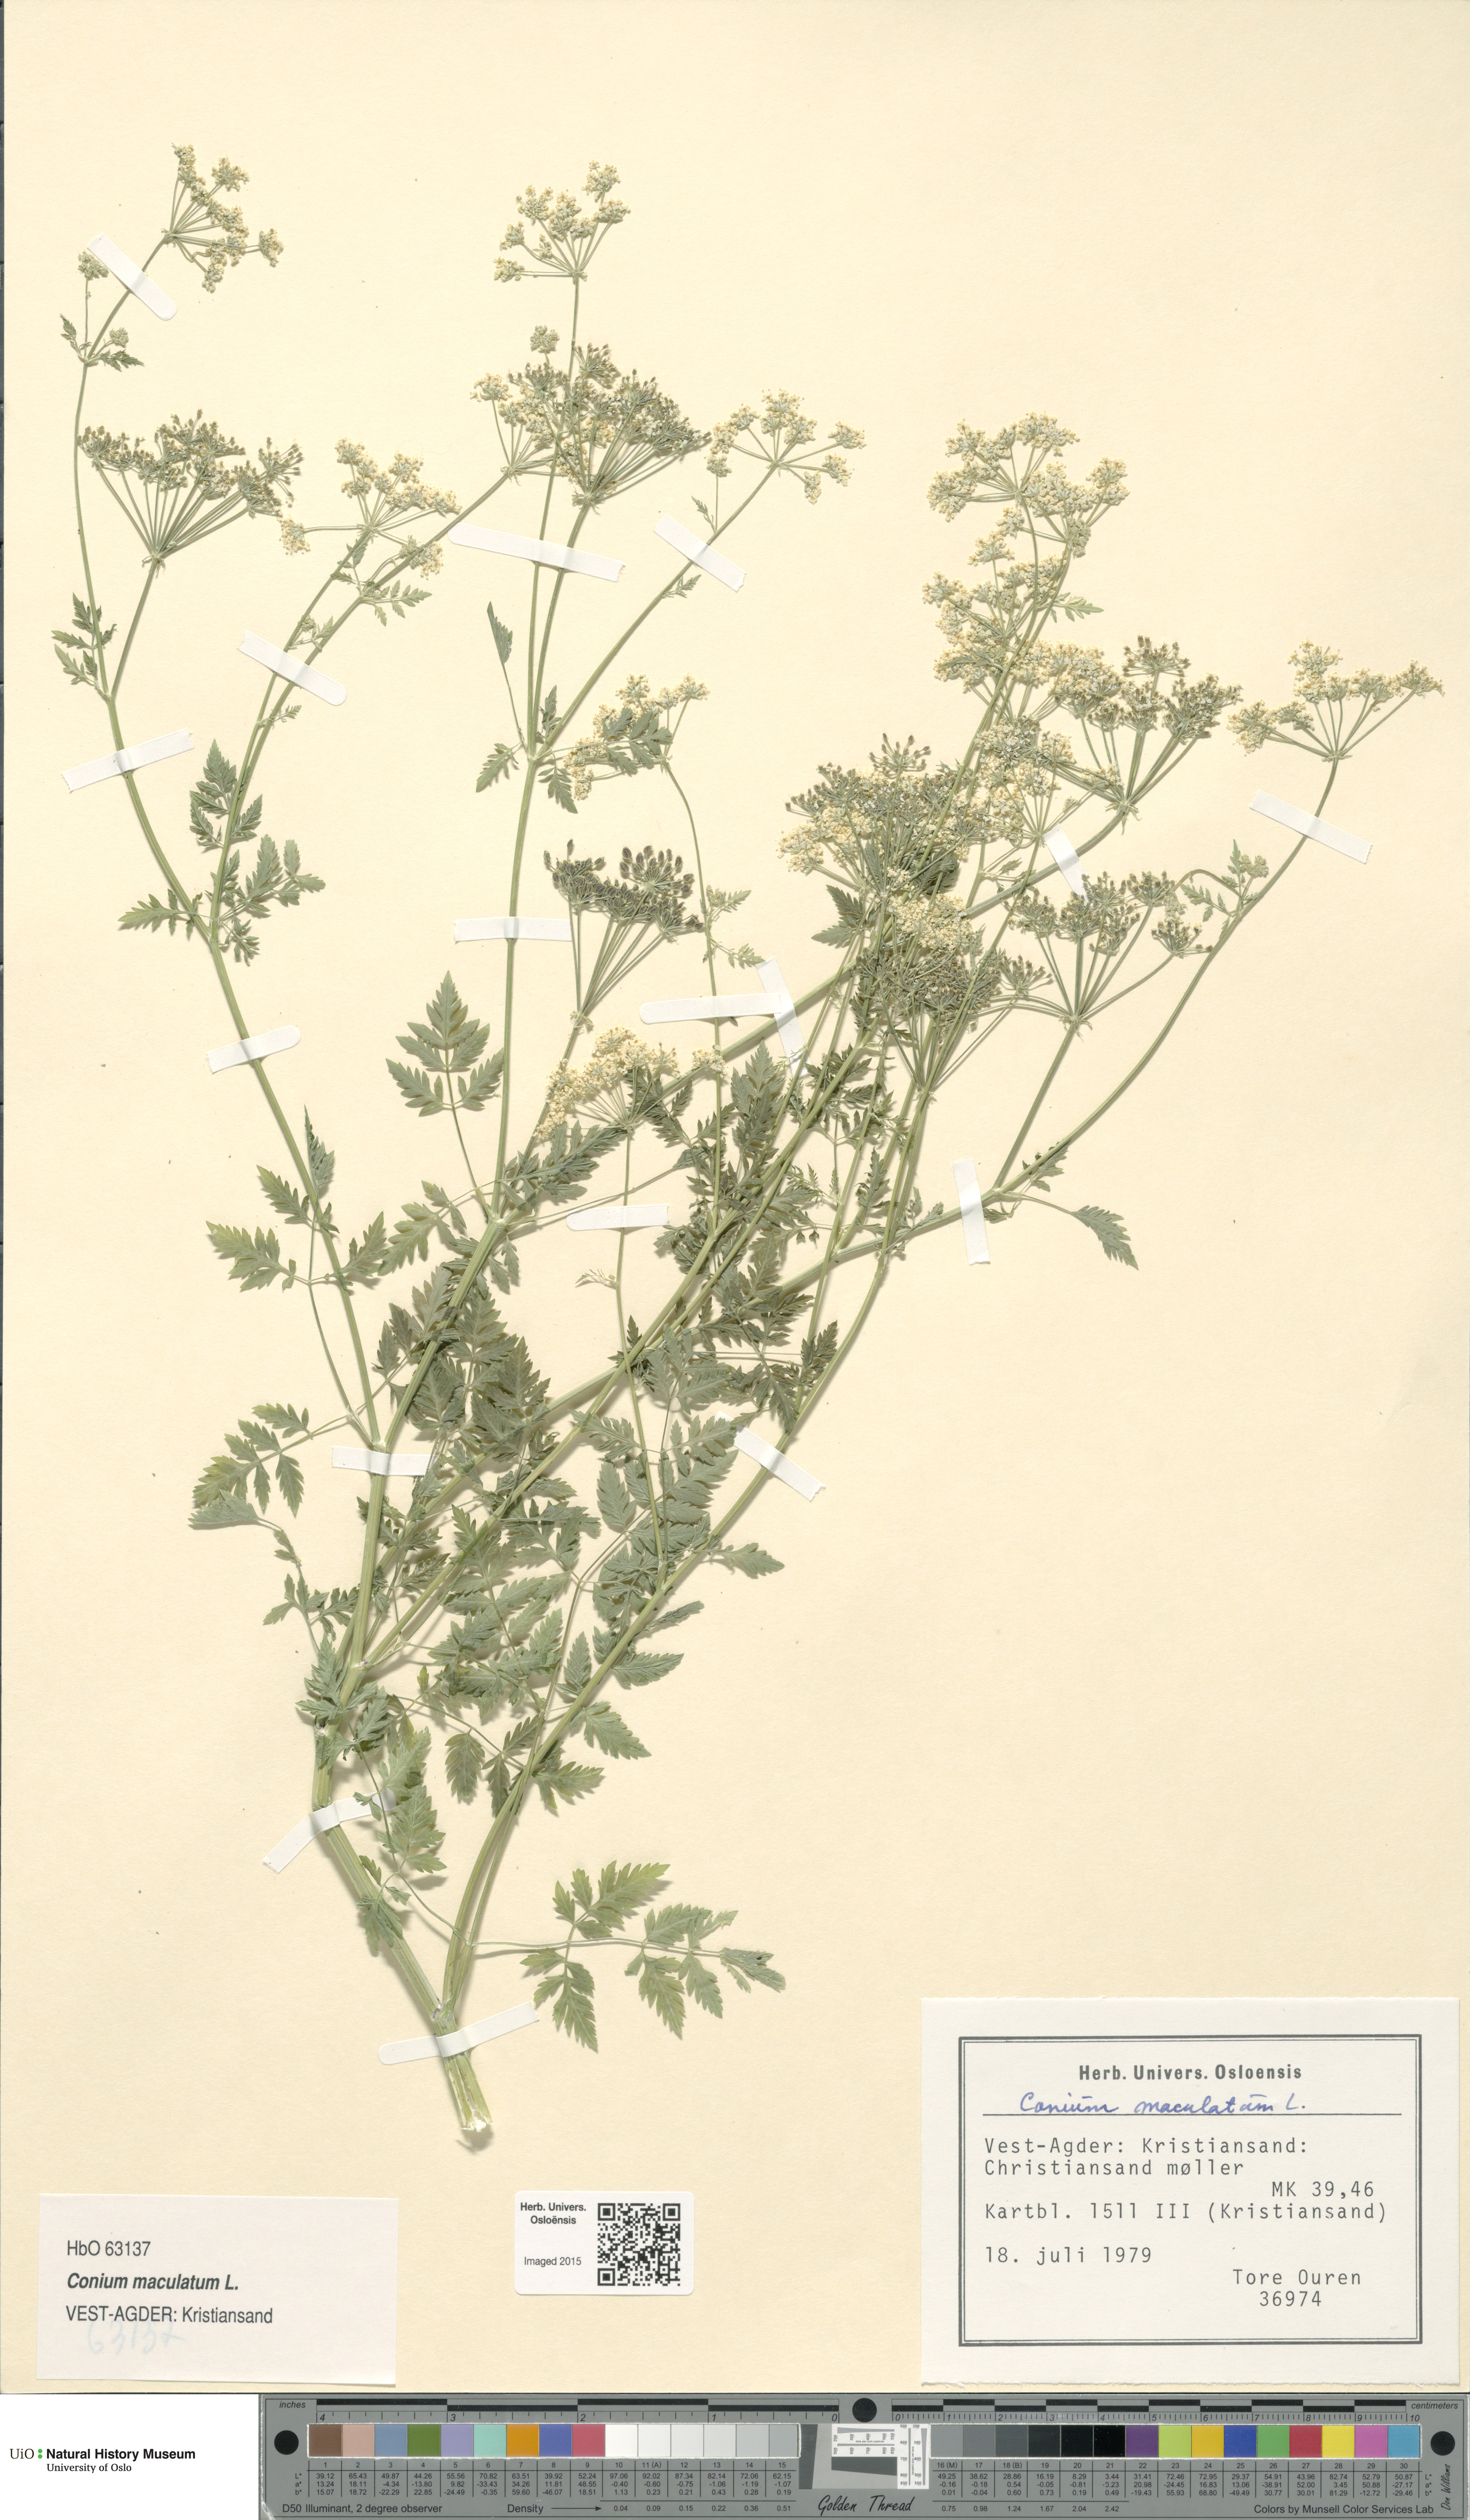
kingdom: Plantae
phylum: Tracheophyta
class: Magnoliopsida
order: Apiales
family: Apiaceae
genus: Conium
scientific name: Conium maculatum
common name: Hemlock
